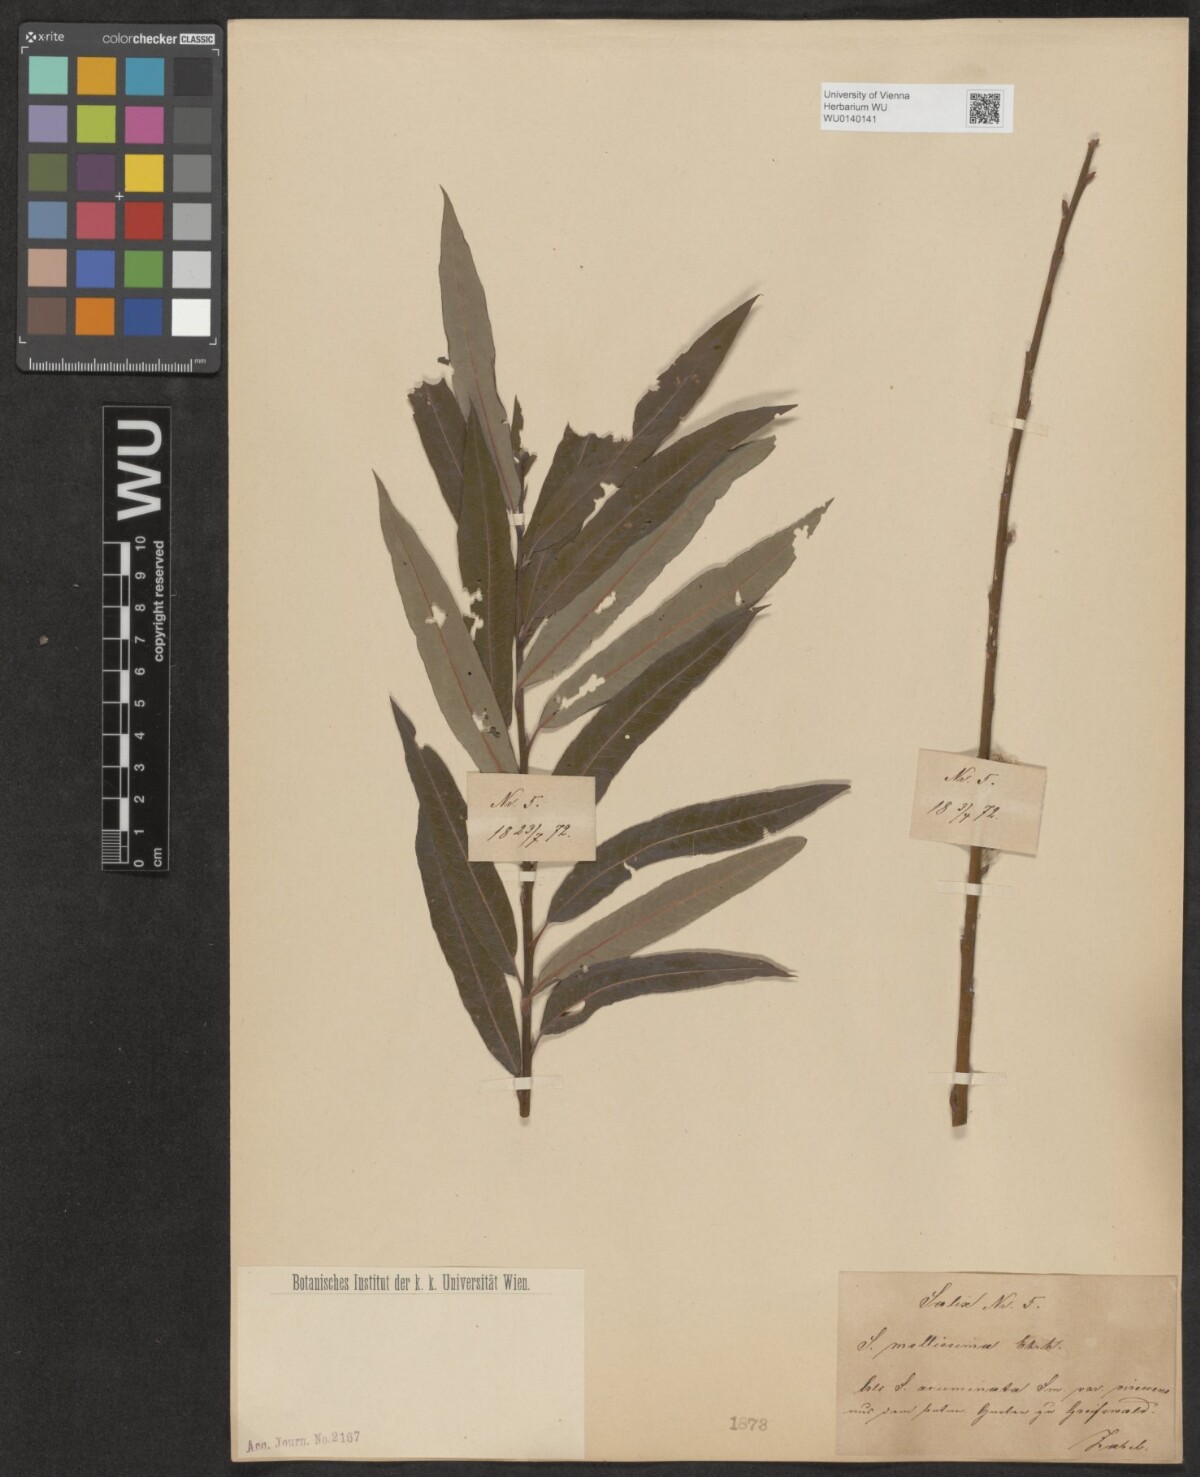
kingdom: Plantae
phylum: Tracheophyta
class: Magnoliopsida
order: Malpighiales
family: Salicaceae
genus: Salix
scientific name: Salix mollissima
